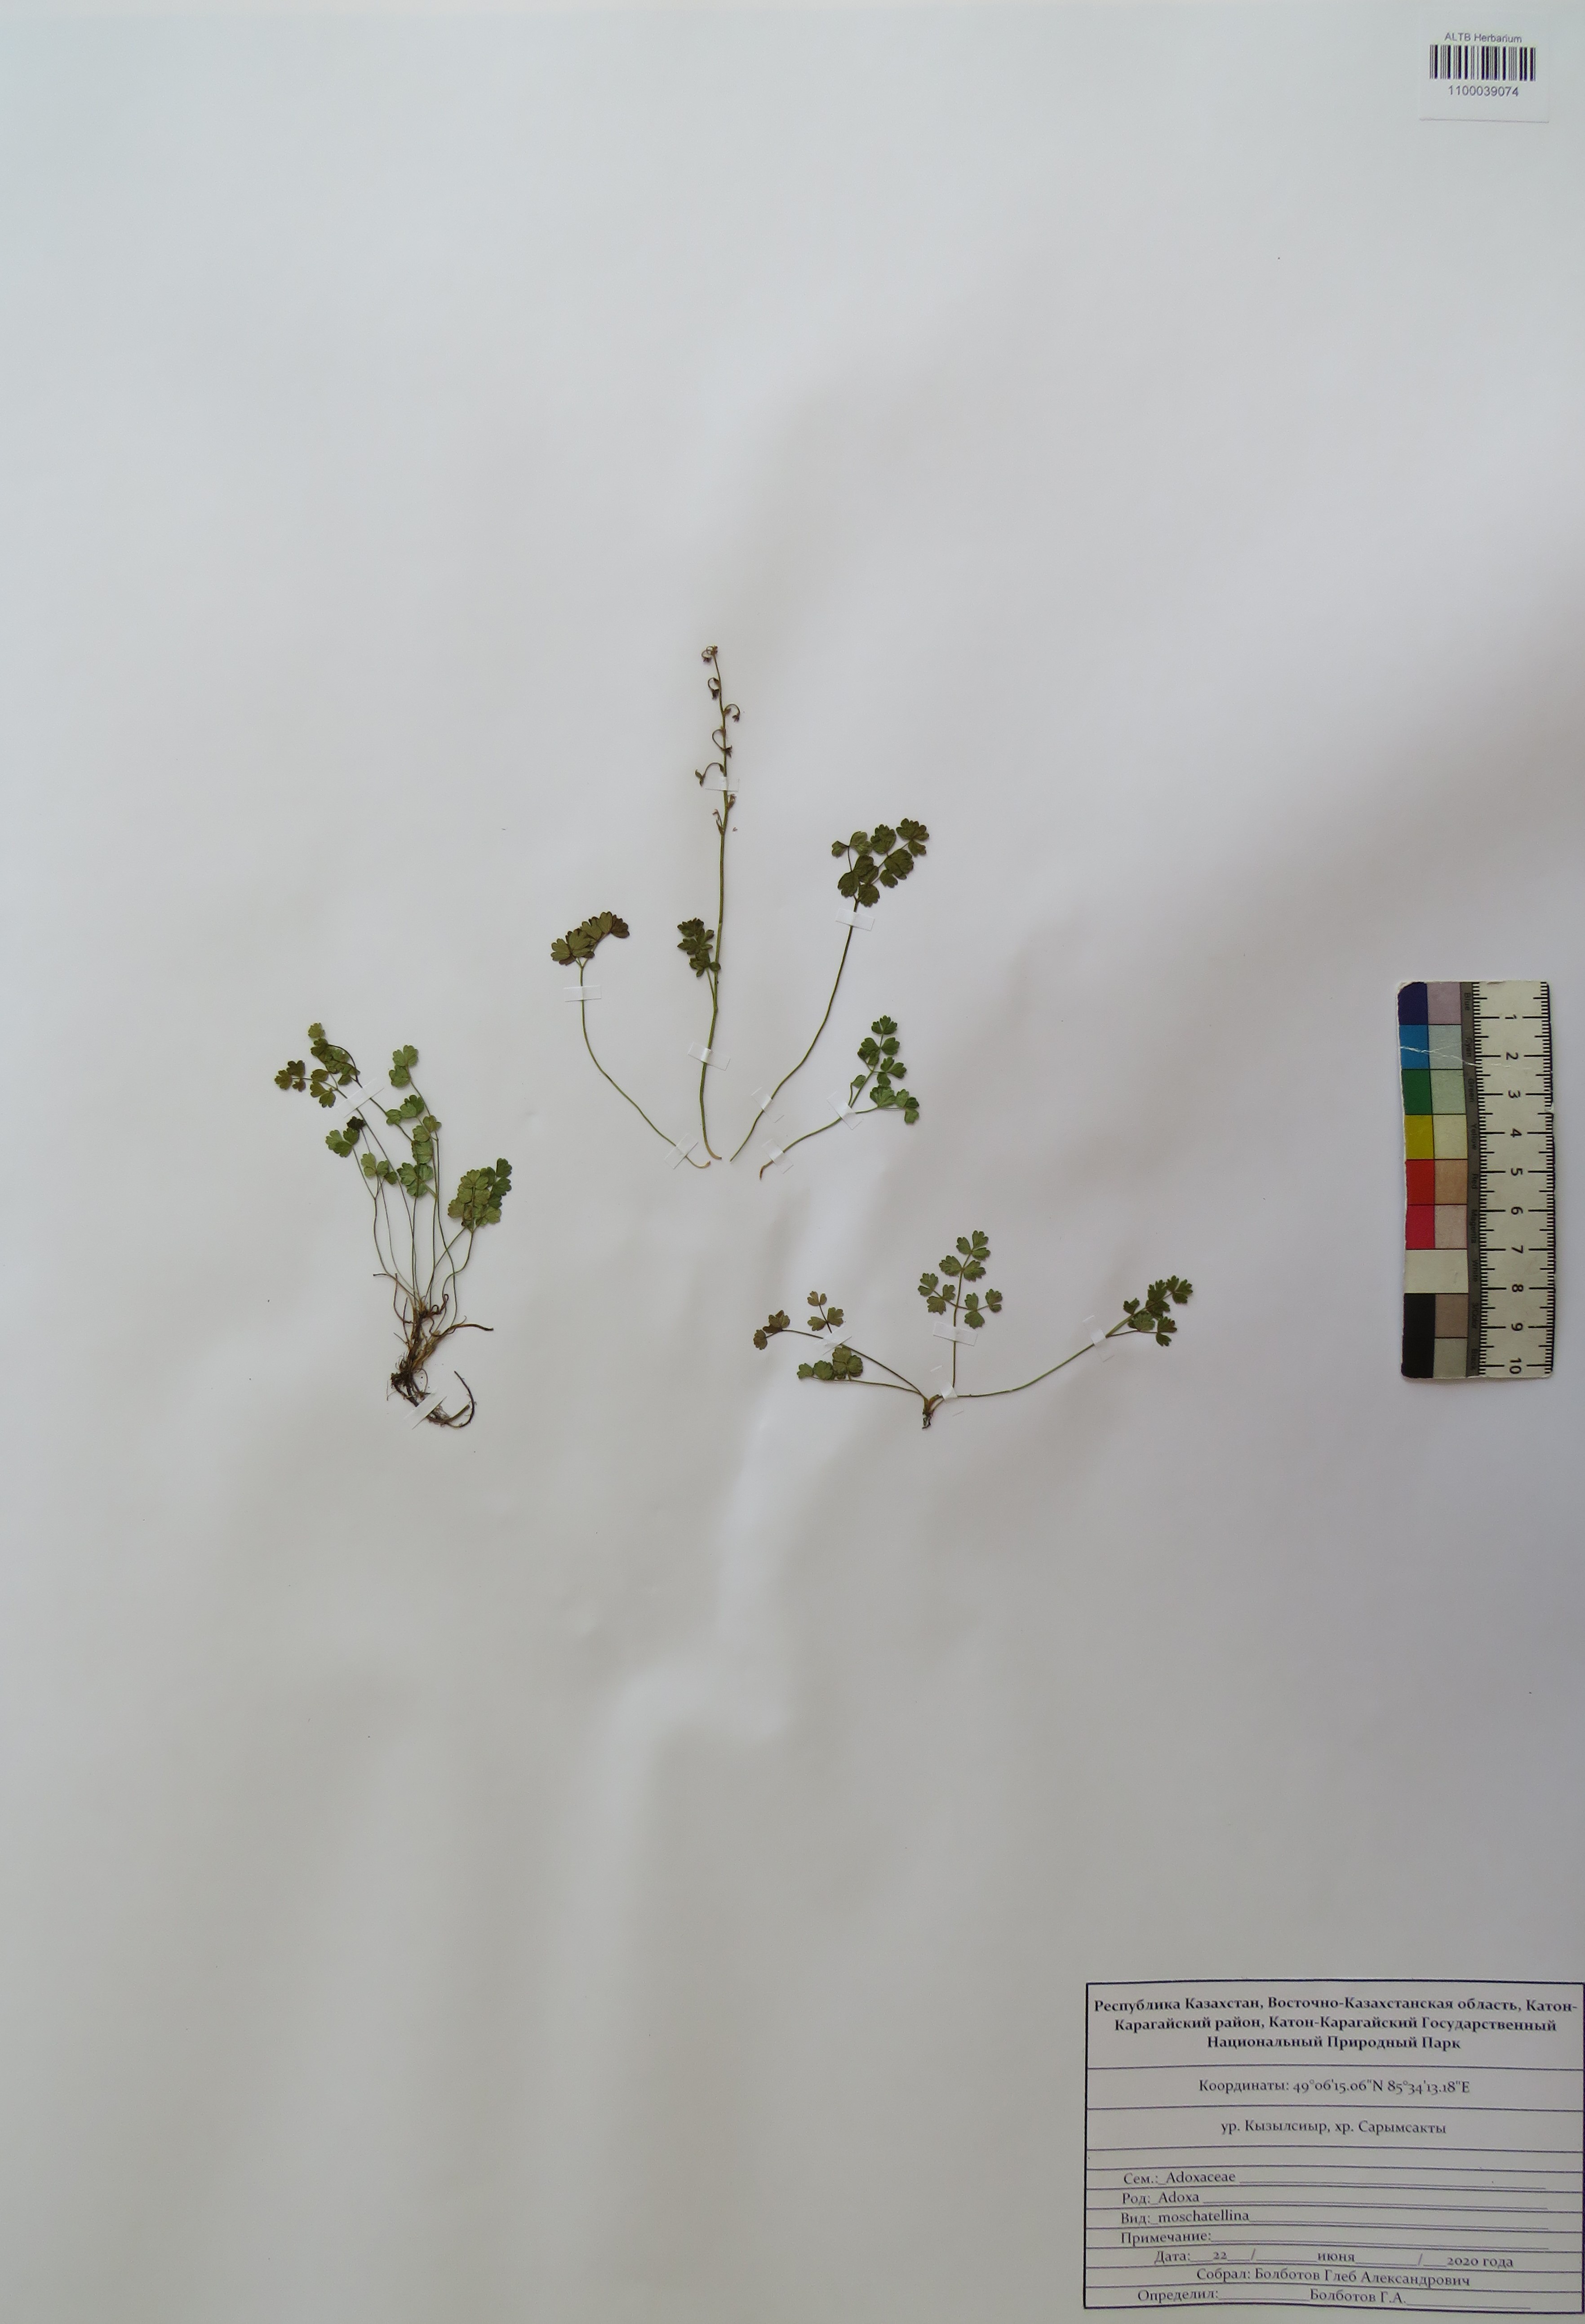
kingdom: Plantae
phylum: Tracheophyta
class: Magnoliopsida
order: Dipsacales
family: Viburnaceae
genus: Adoxa
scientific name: Adoxa moschatellina
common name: Moschatel
